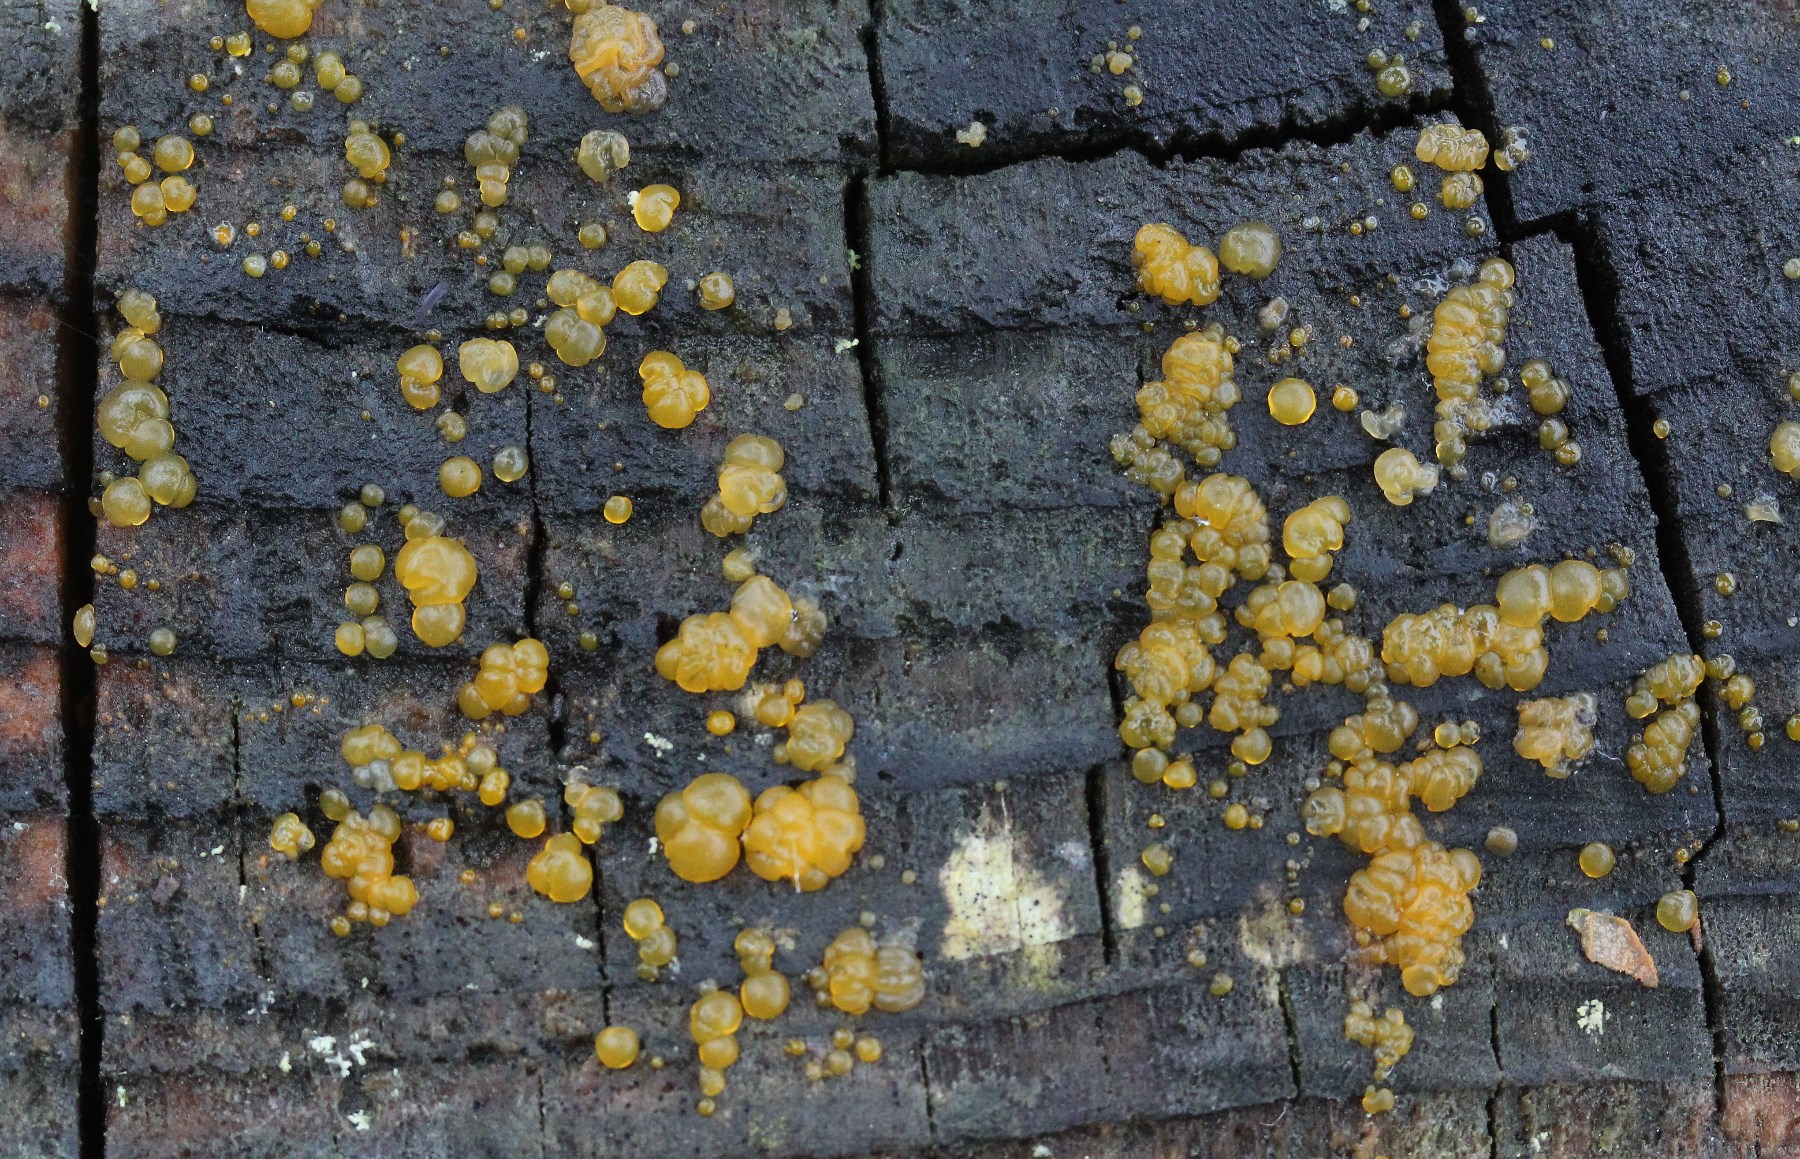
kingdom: Fungi
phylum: Basidiomycota
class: Dacrymycetes
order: Dacrymycetales
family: Dacrymycetaceae
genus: Dacrymyces
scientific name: Dacrymyces
